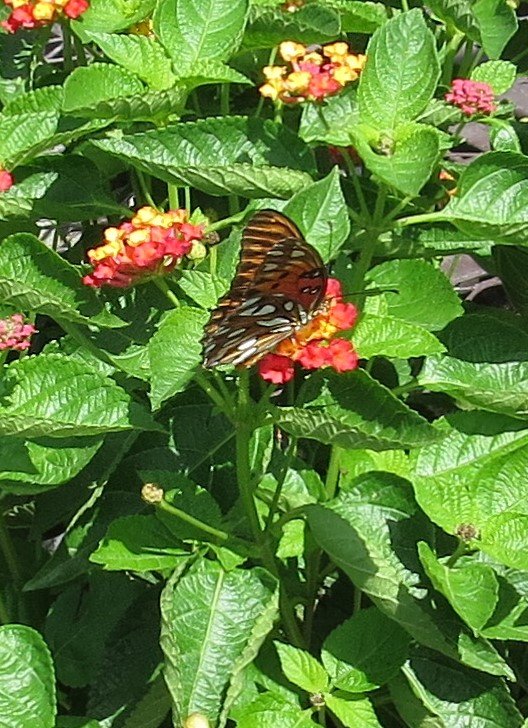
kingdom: Animalia
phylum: Arthropoda
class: Insecta
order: Lepidoptera
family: Nymphalidae
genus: Dione
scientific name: Dione vanillae
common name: Gulf Fritillary
